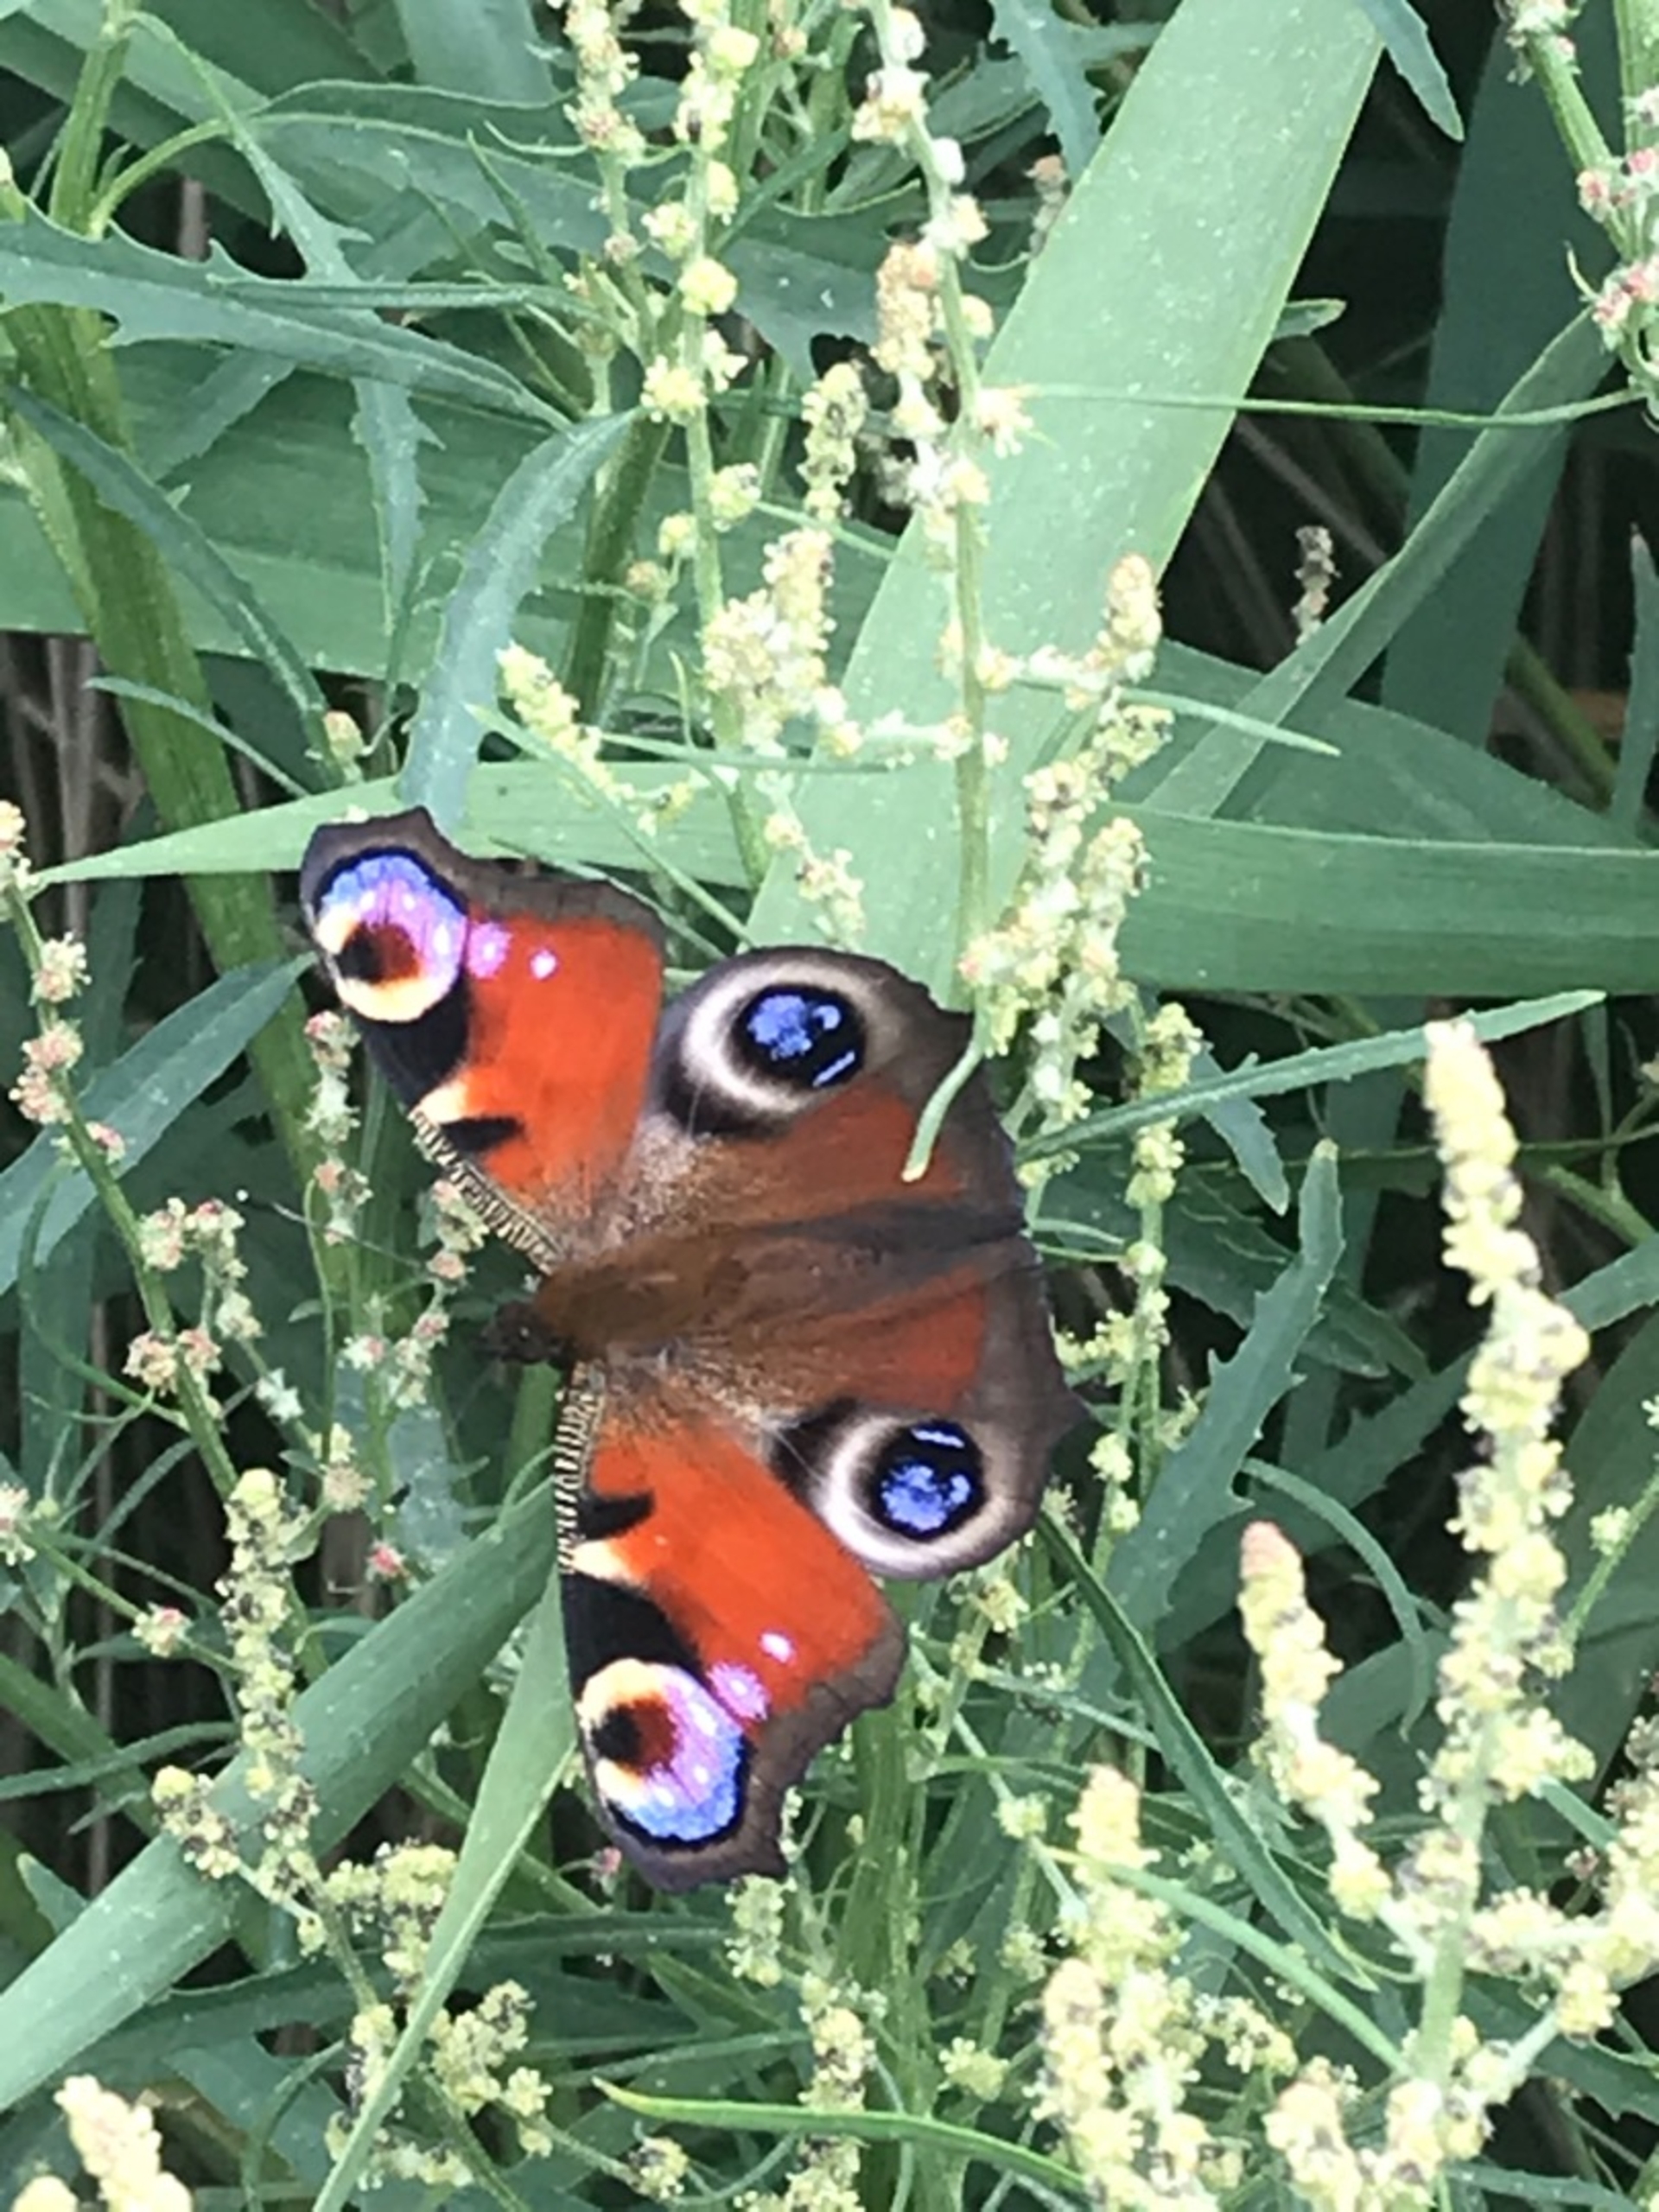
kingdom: Animalia
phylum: Arthropoda
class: Insecta
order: Lepidoptera
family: Nymphalidae
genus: Aglais
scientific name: Aglais io
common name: Dagpåfugleøje
